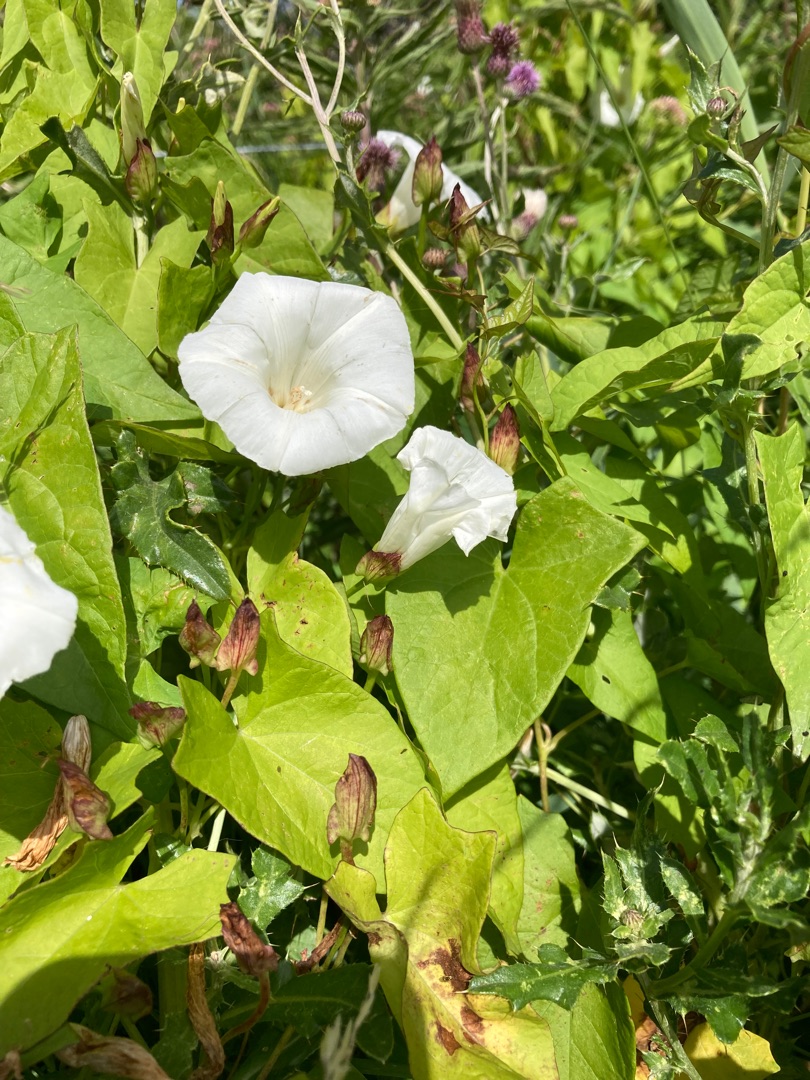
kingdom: Plantae
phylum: Tracheophyta
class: Magnoliopsida
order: Solanales
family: Convolvulaceae
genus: Calystegia
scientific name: Calystegia sepium
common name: Gærde-snerle
